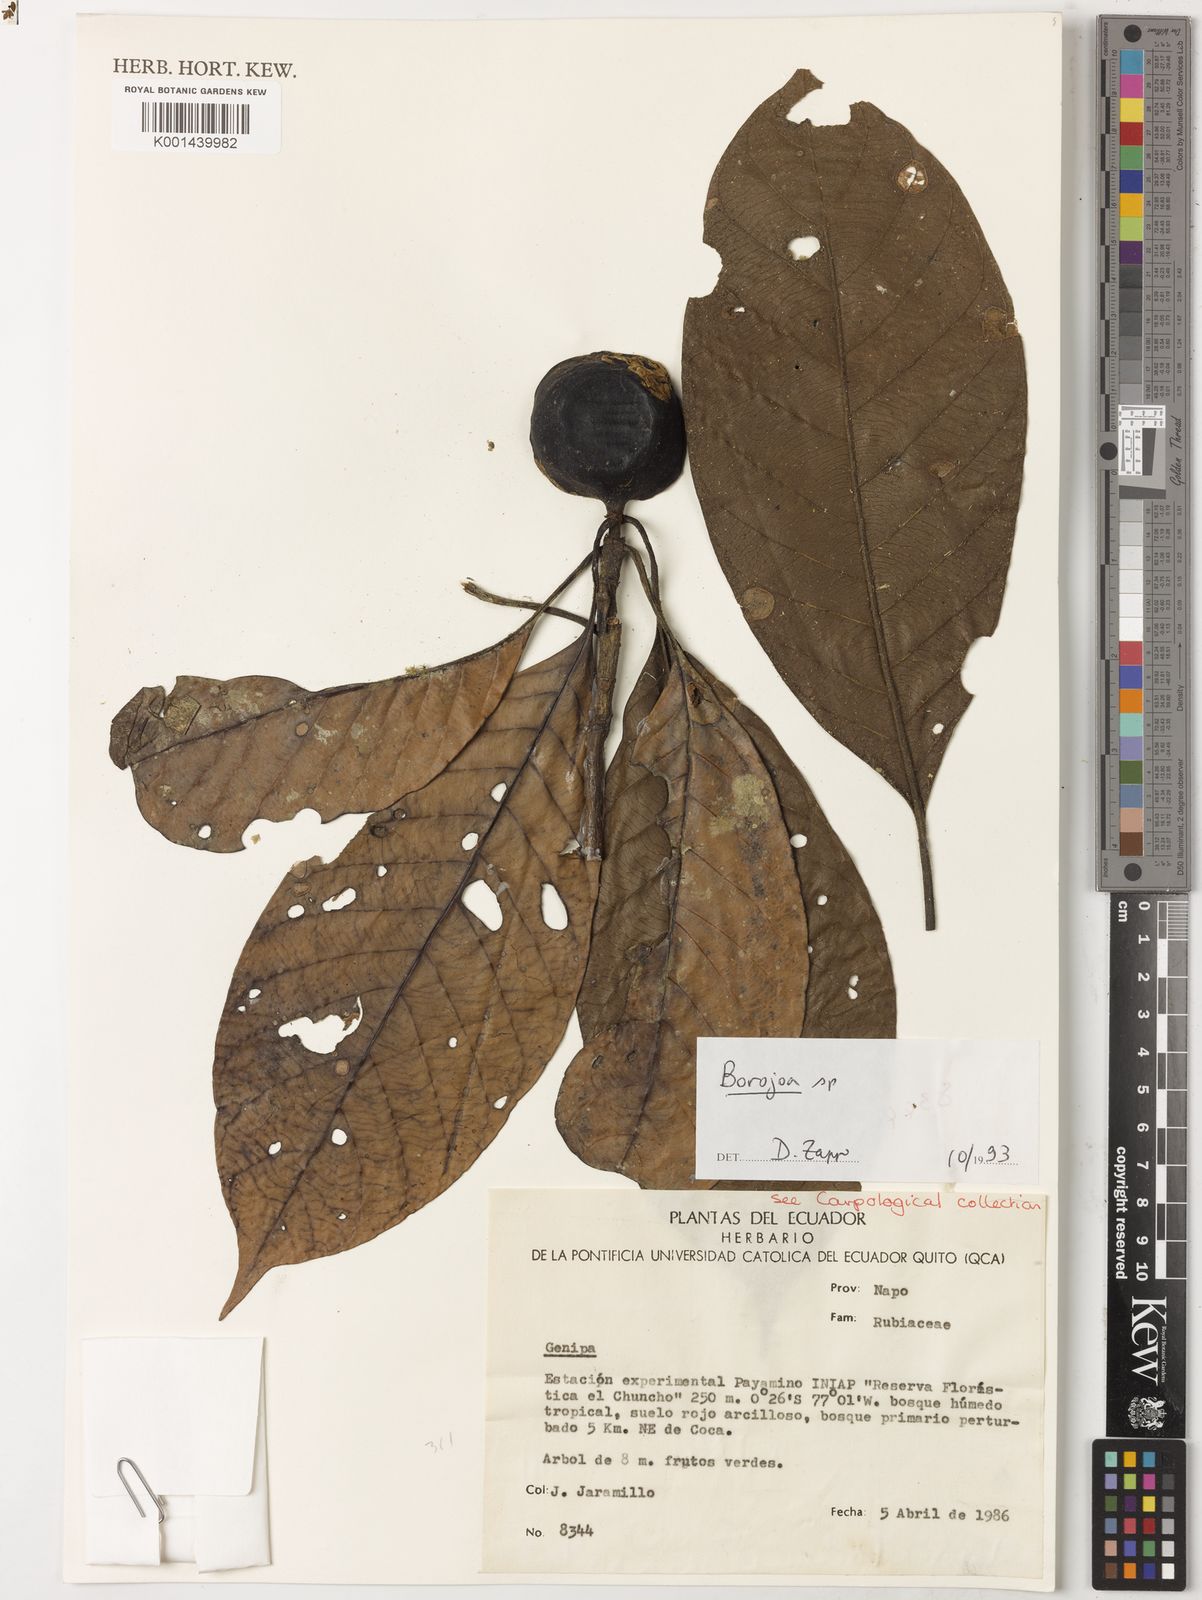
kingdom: Plantae
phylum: Tracheophyta
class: Magnoliopsida
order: Gentianales
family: Rubiaceae
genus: Alibertia
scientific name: Alibertia patinoi
